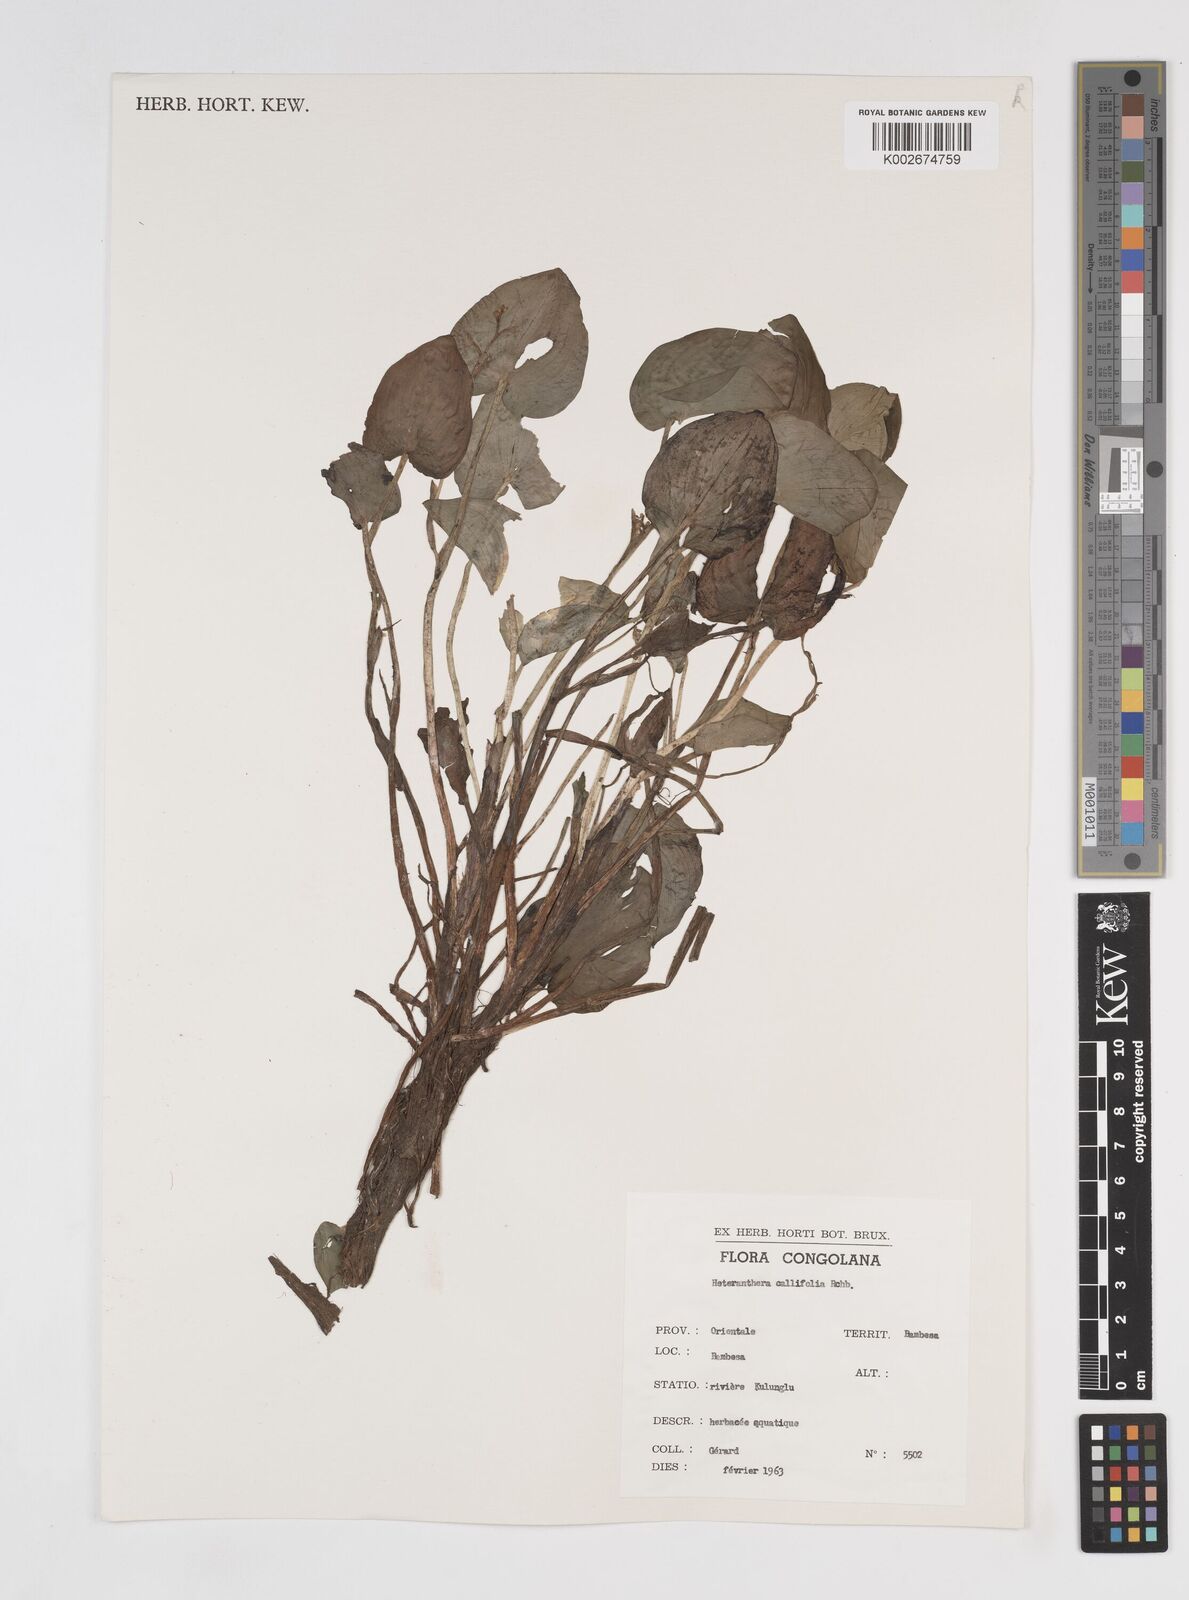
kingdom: Plantae
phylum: Tracheophyta
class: Liliopsida
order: Commelinales
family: Pontederiaceae
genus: Heteranthera
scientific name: Heteranthera callifolia
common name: Mud plantain
